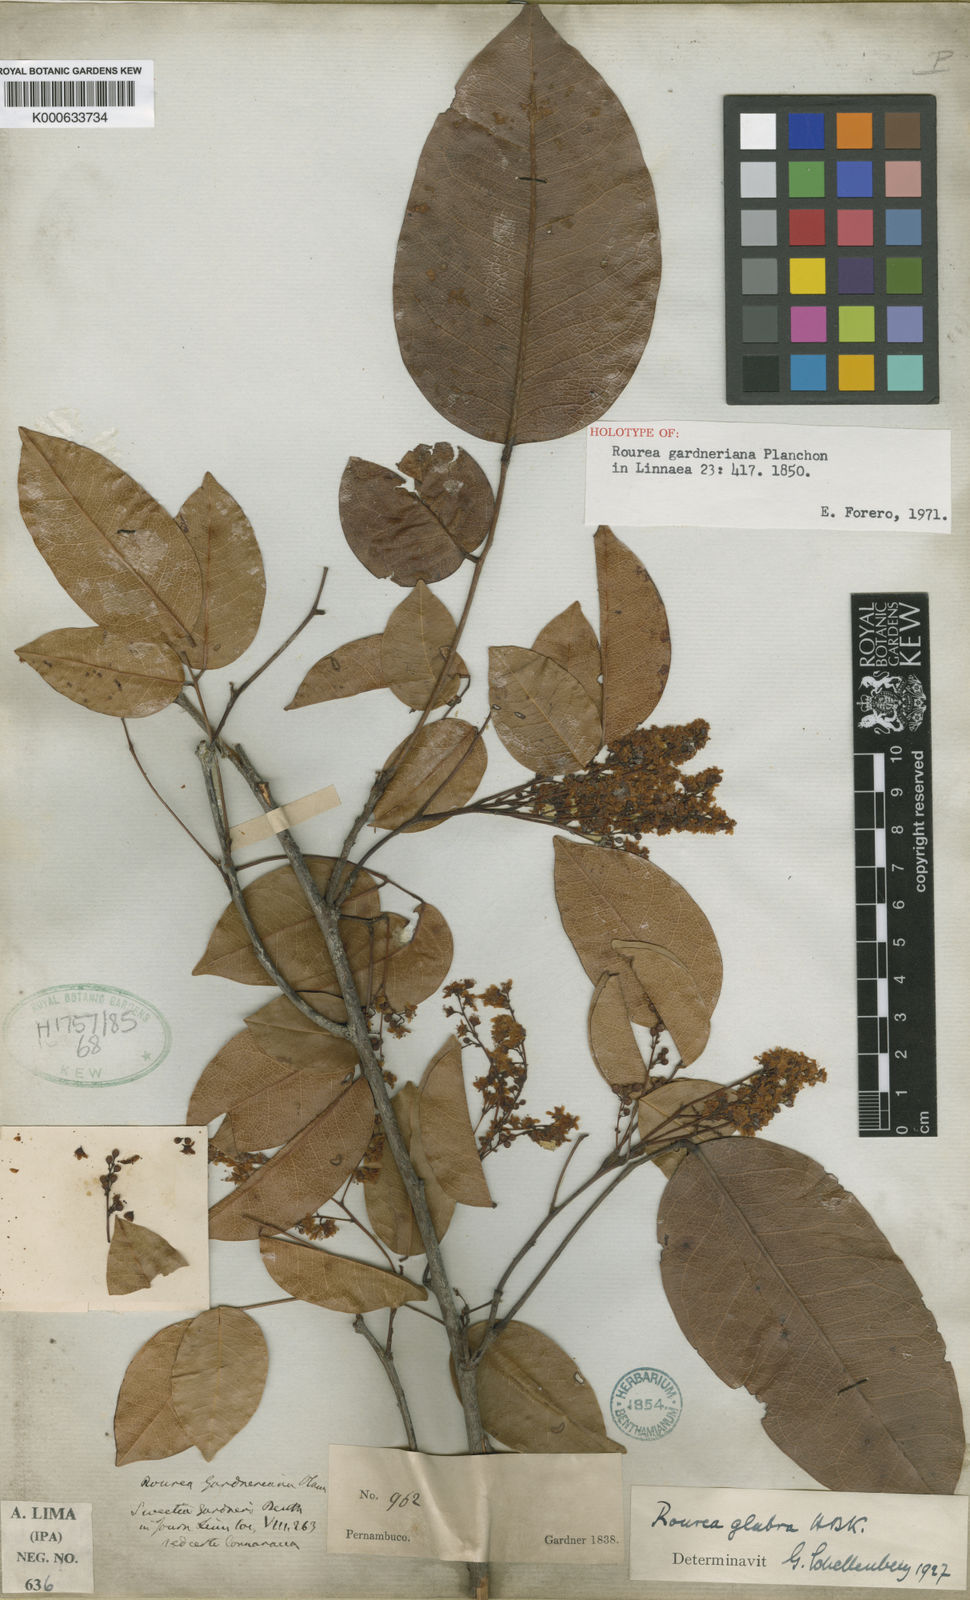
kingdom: Plantae
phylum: Tracheophyta
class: Magnoliopsida
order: Oxalidales
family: Connaraceae
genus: Rourea
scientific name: Rourea gardneriana
